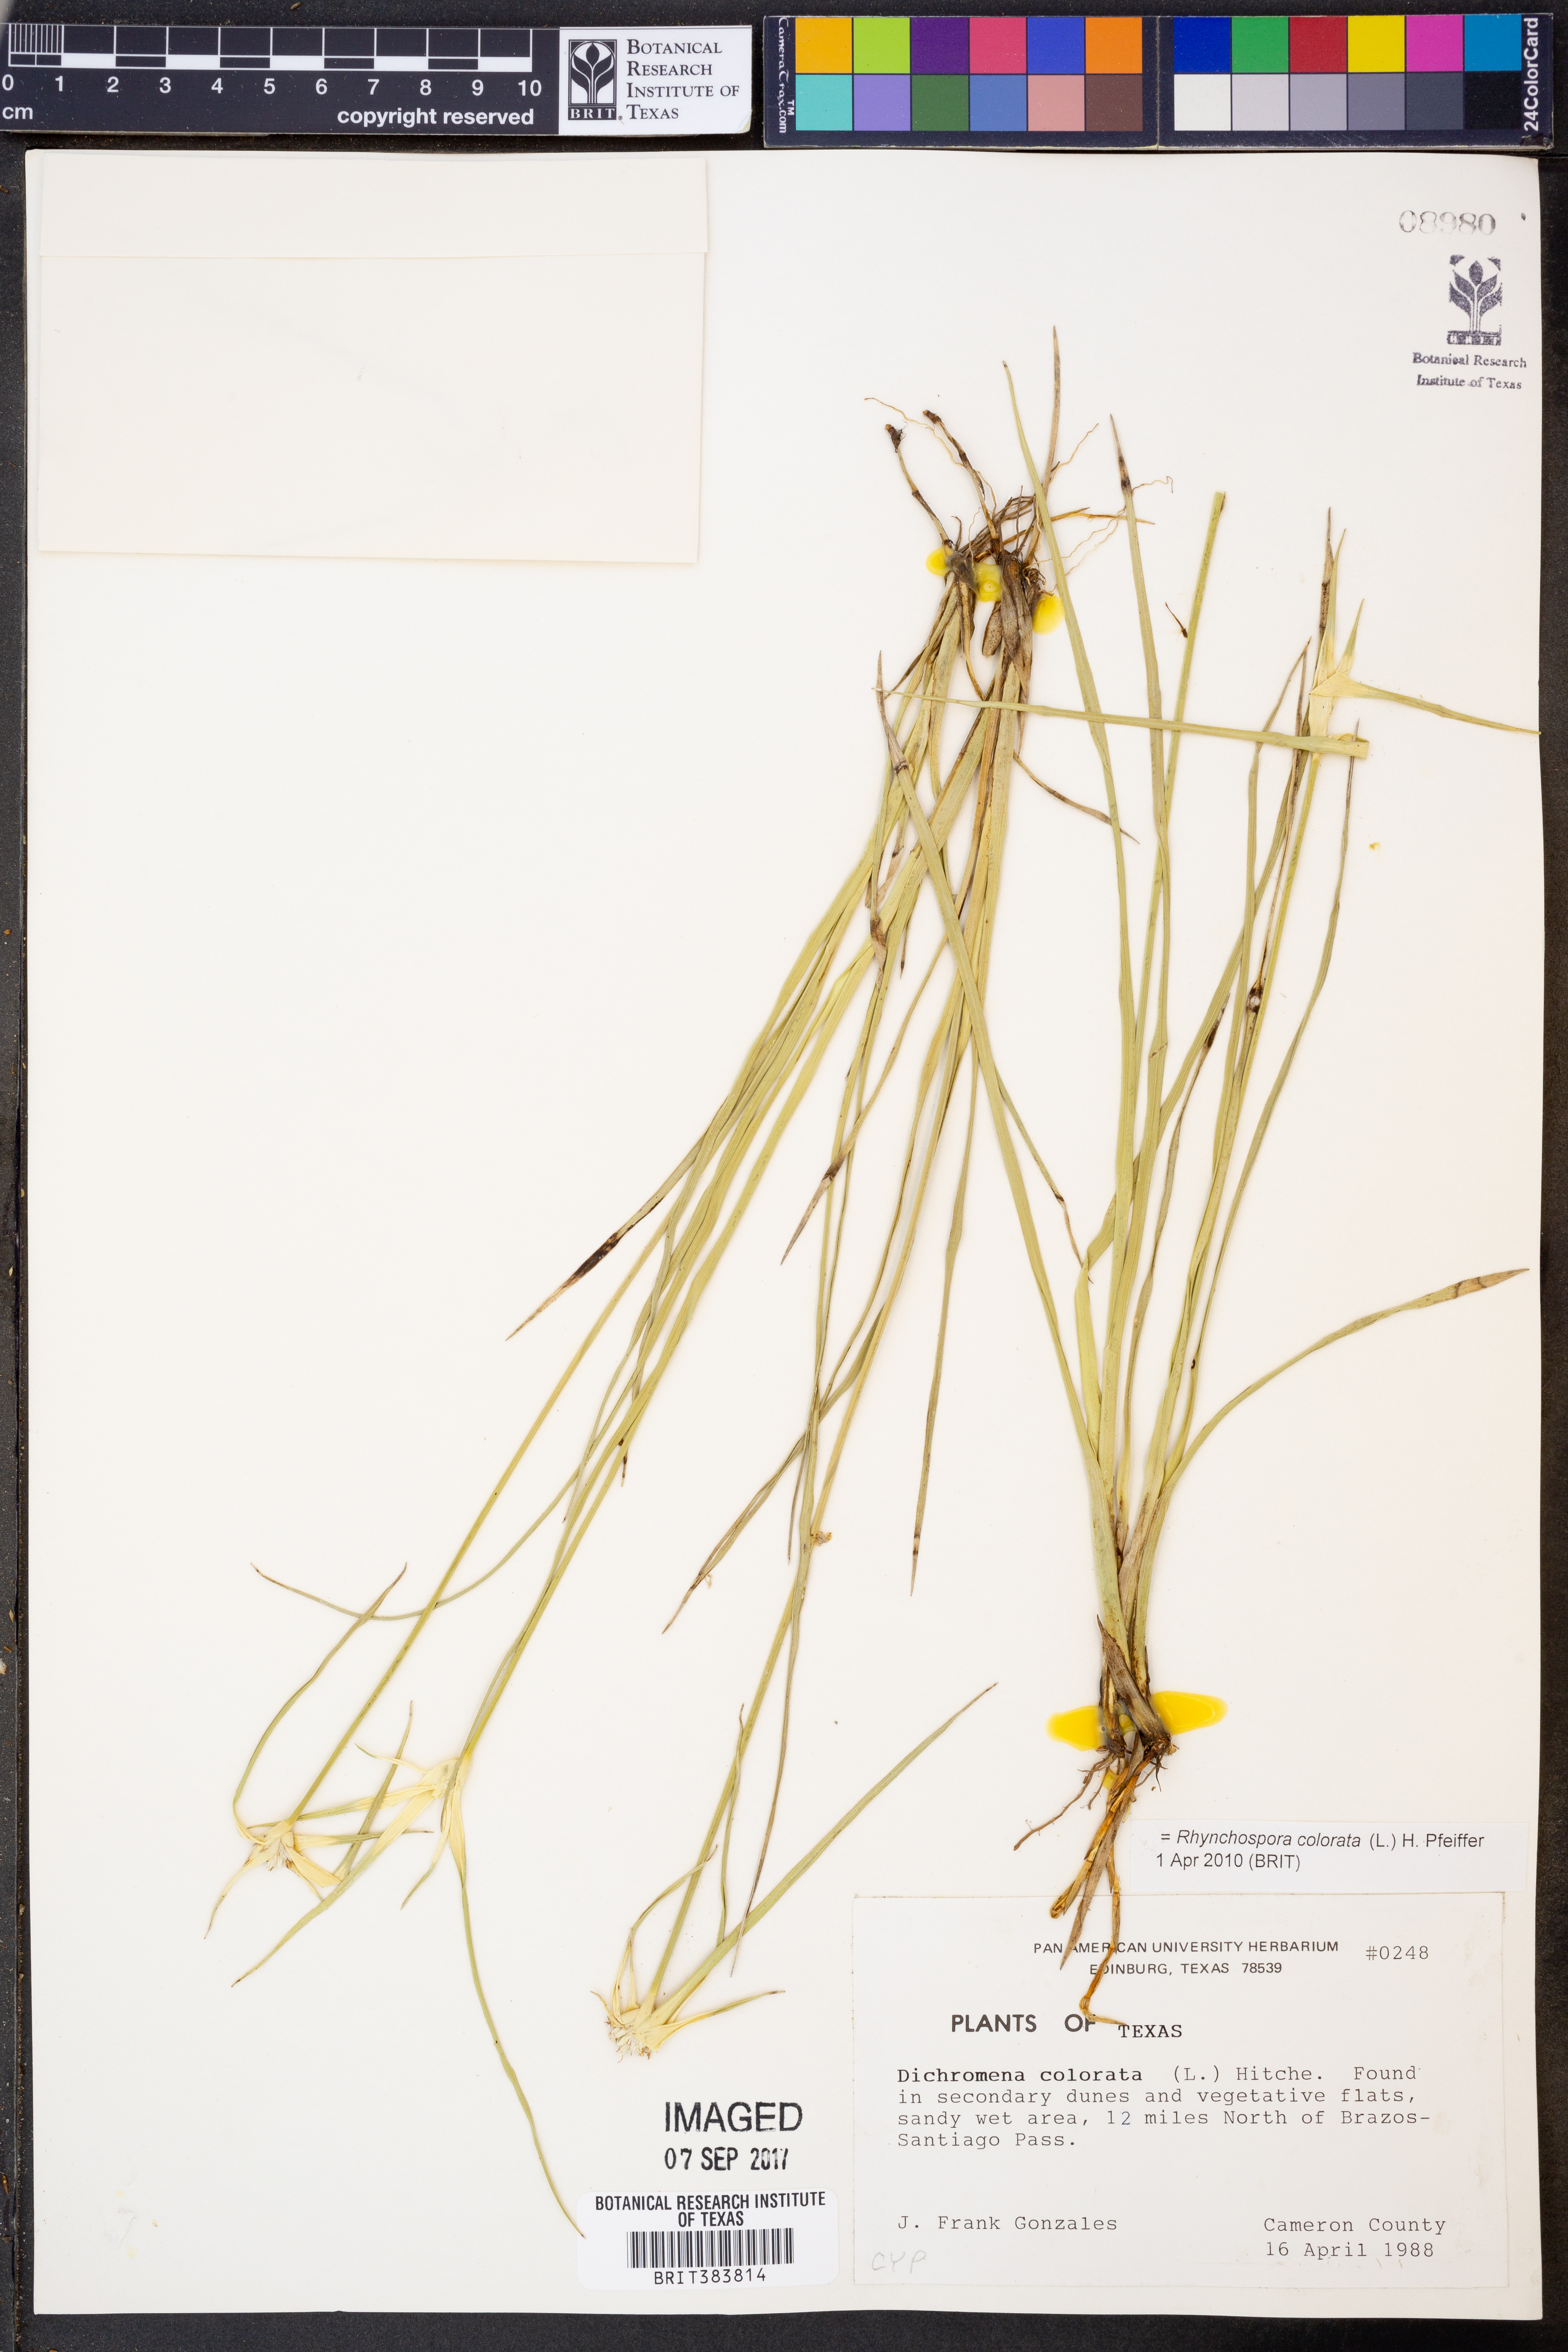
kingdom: Plantae
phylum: Tracheophyta
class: Liliopsida
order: Poales
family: Cyperaceae
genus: Rhynchospora
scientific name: Rhynchospora colorata
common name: Star sedge
